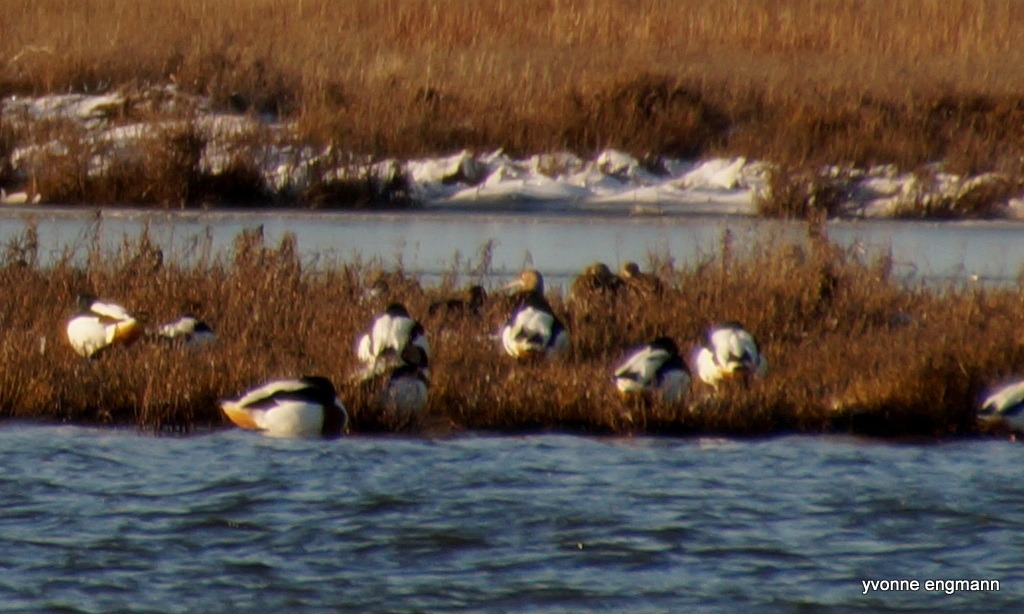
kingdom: Animalia
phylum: Chordata
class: Aves
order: Charadriiformes
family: Scolopacidae
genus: Numenius
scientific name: Numenius arquata
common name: Storspove
